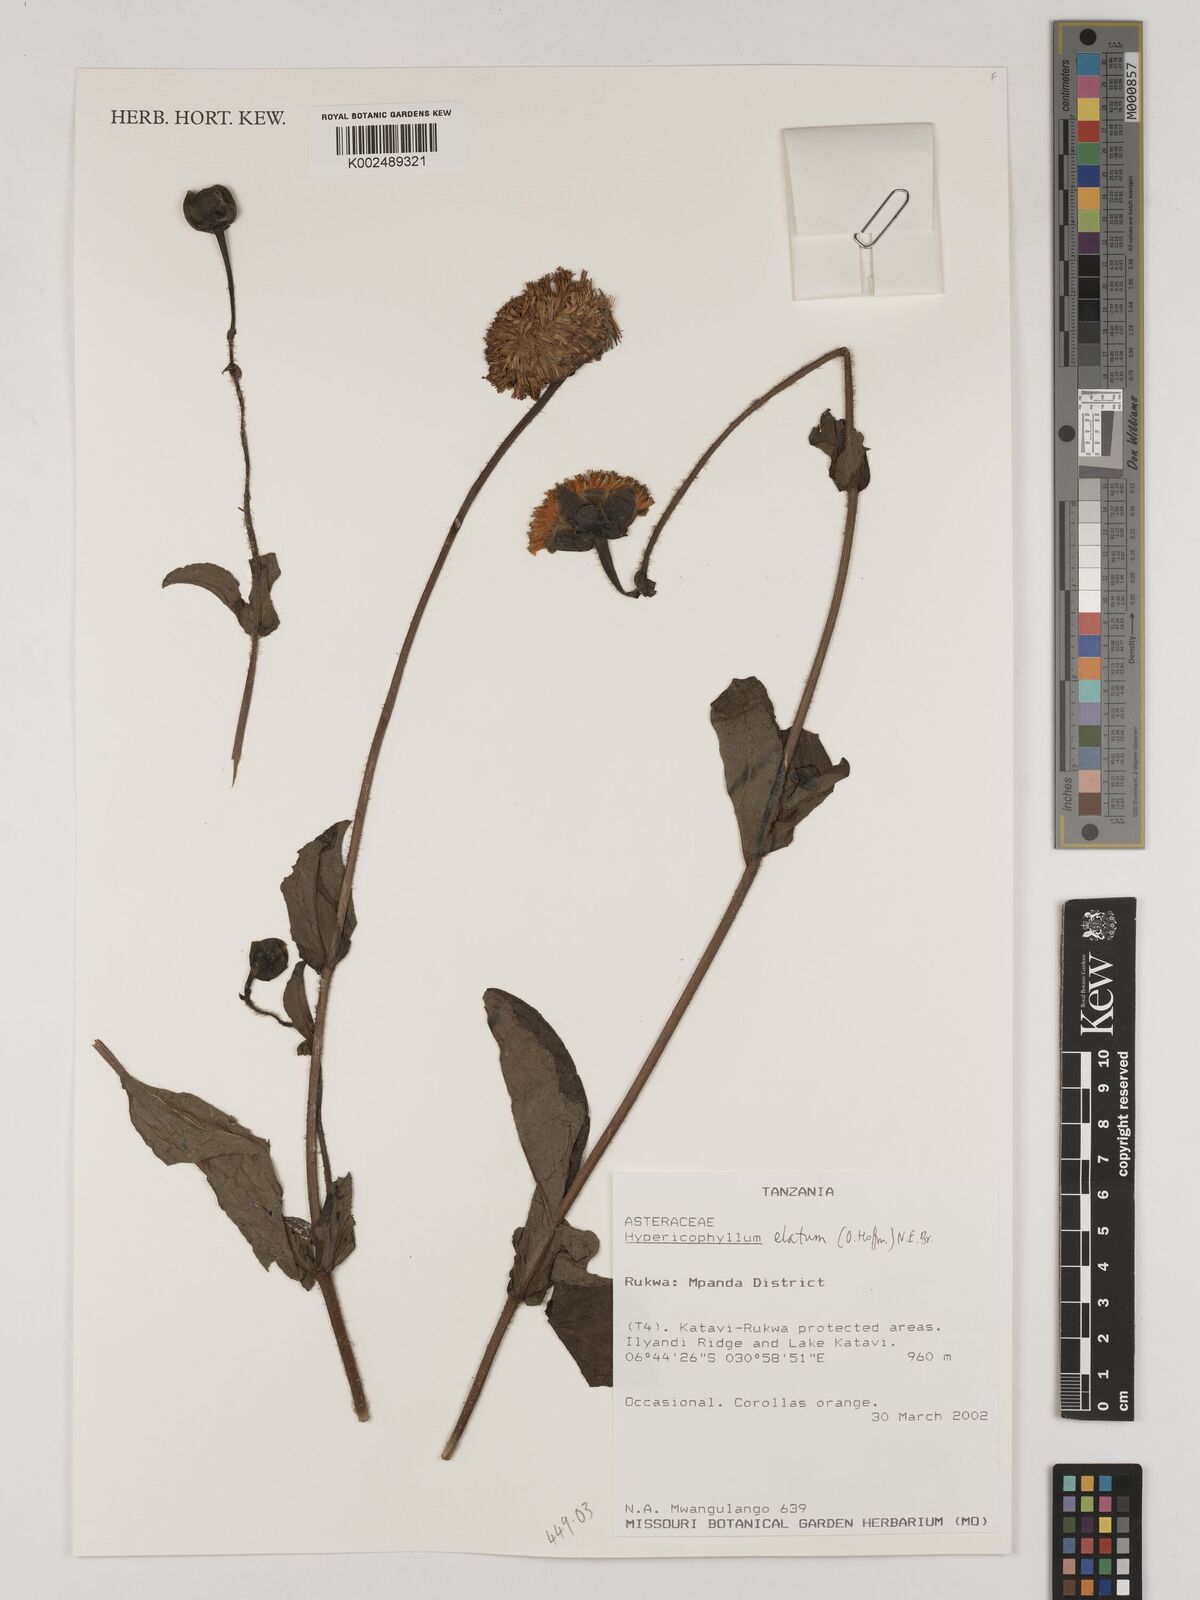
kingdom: Plantae
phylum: Tracheophyta
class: Magnoliopsida
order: Asterales
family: Asteraceae
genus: Hypericophyllum
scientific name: Hypericophyllum elatum
